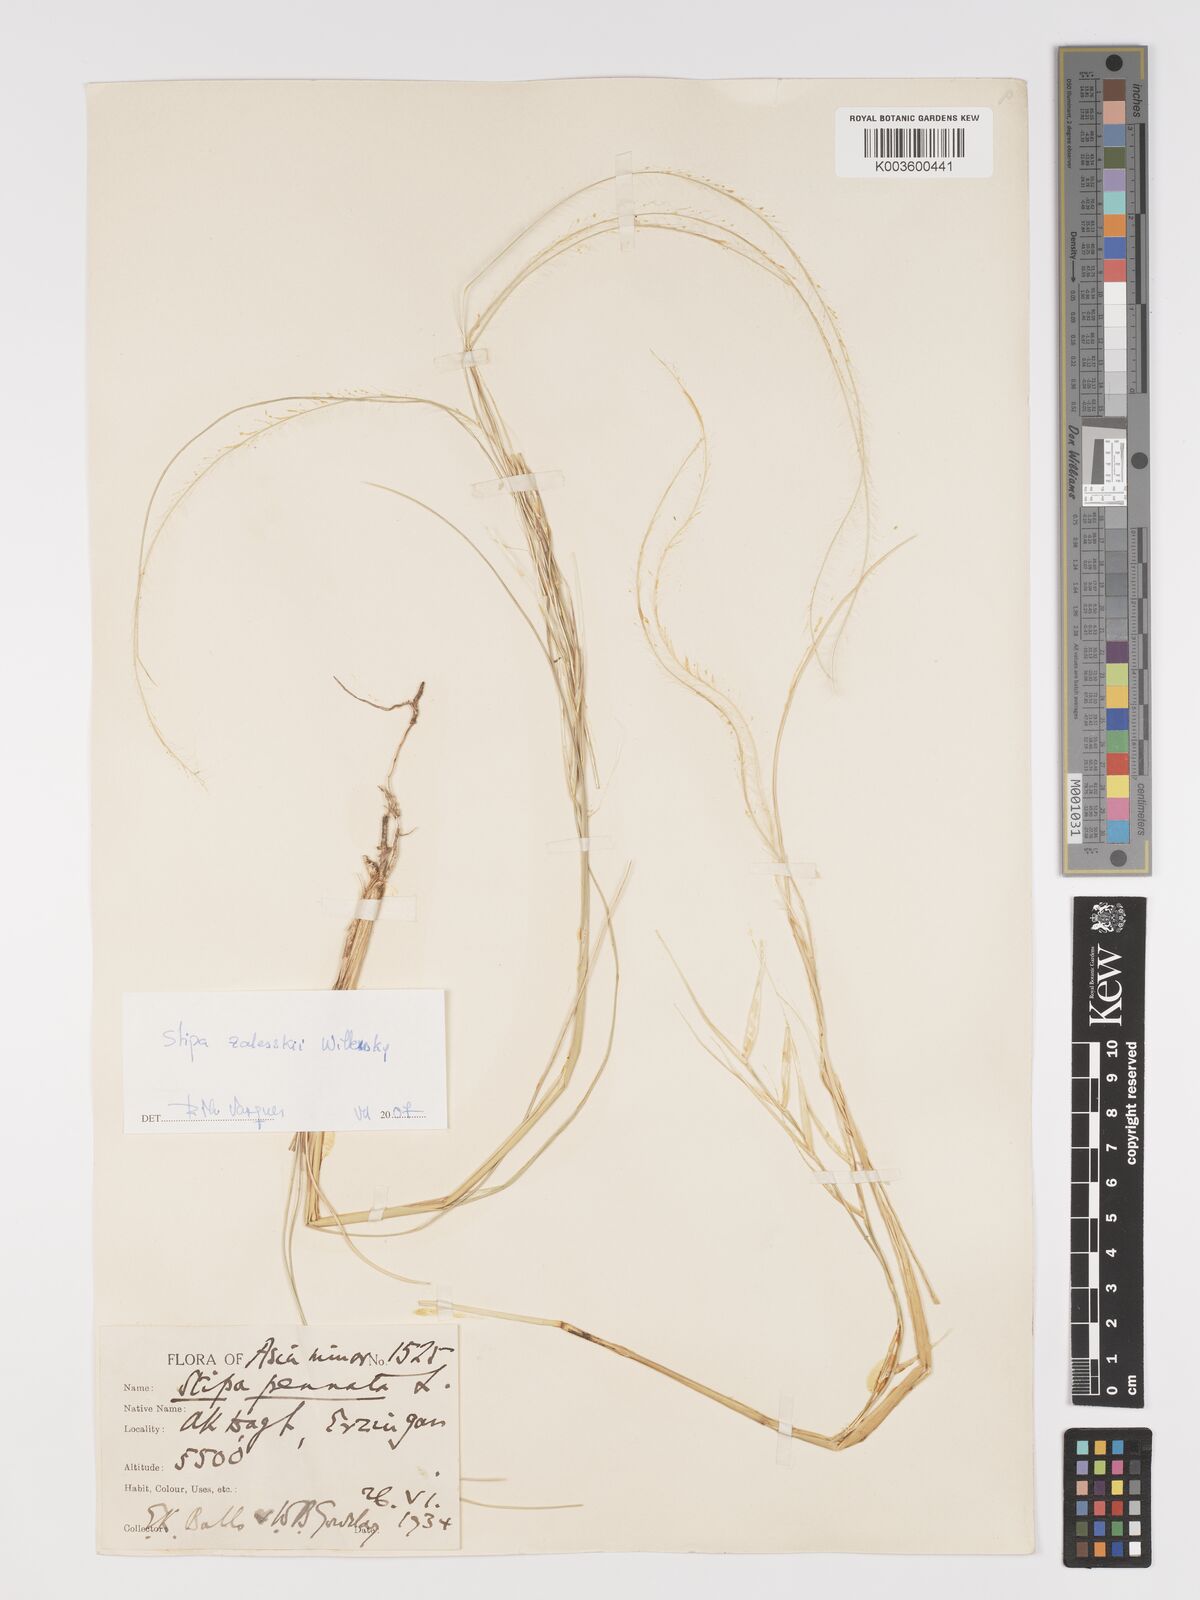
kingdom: Plantae
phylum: Tracheophyta
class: Liliopsida
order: Poales
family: Poaceae
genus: Stipa
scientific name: Stipa zalesskyi
